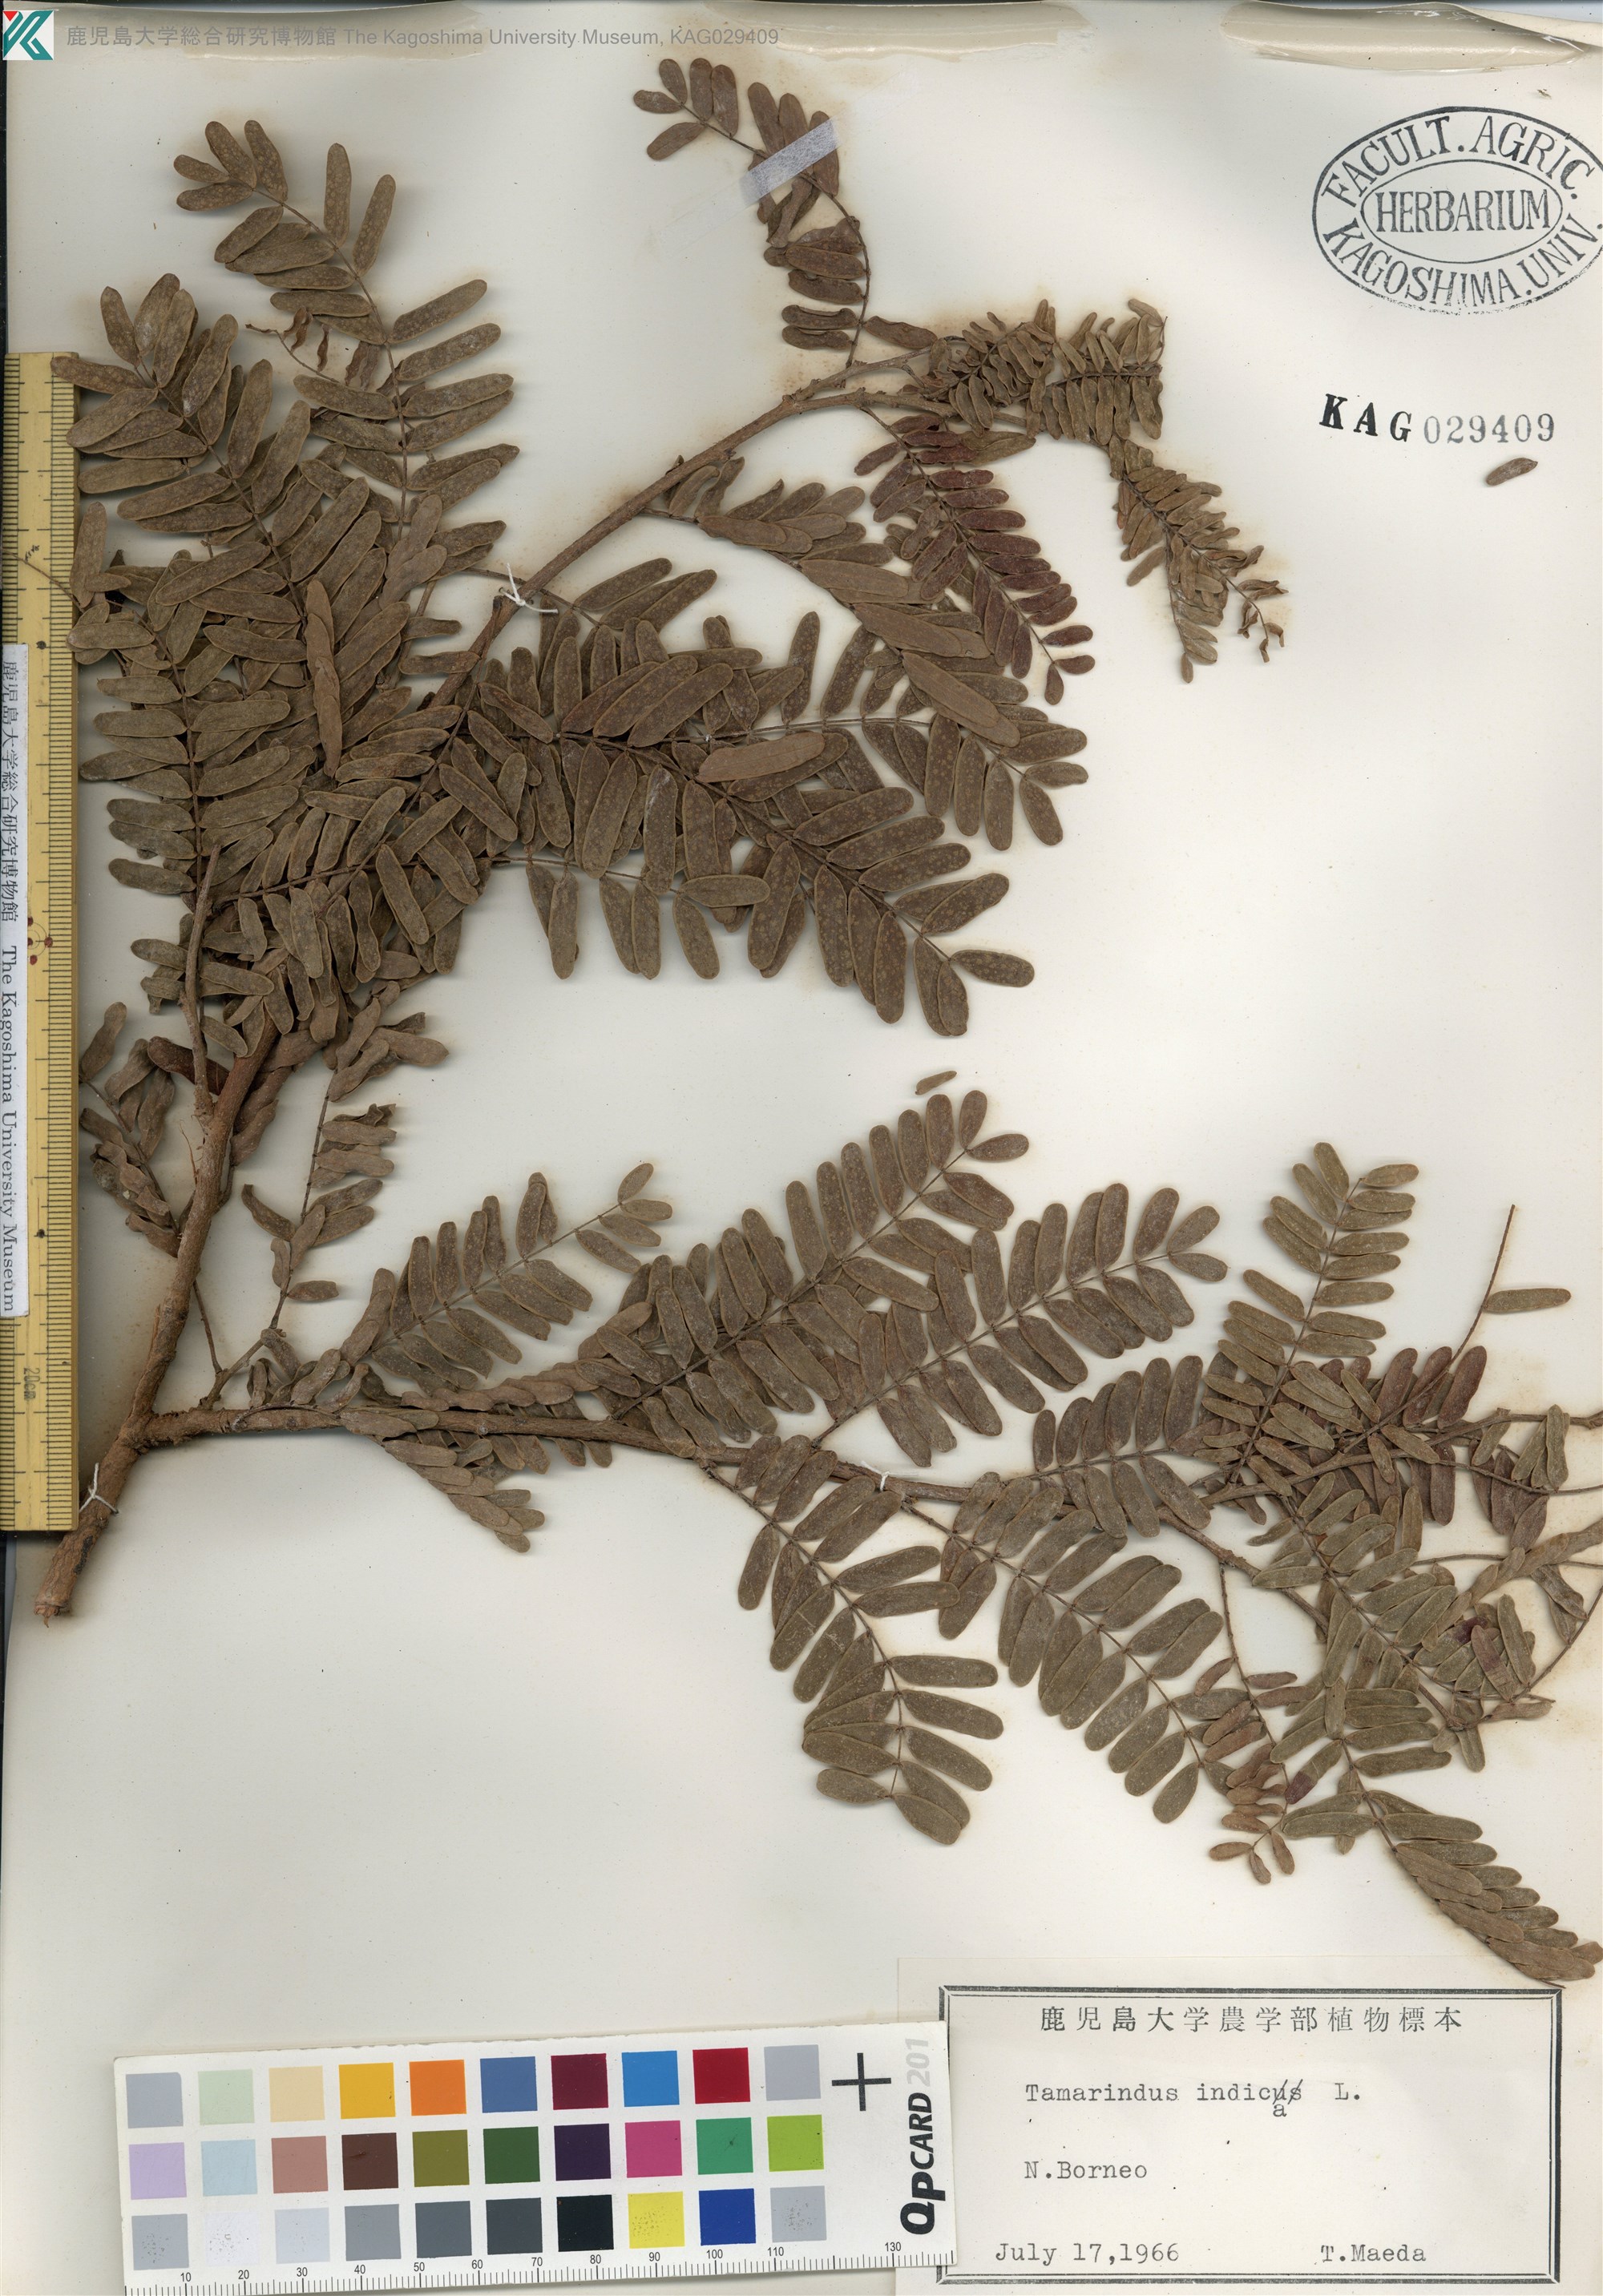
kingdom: Plantae
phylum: Tracheophyta
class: Magnoliopsida
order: Fabales
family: Fabaceae
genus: Tamarindus
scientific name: Tamarindus indica
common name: Tamarind
